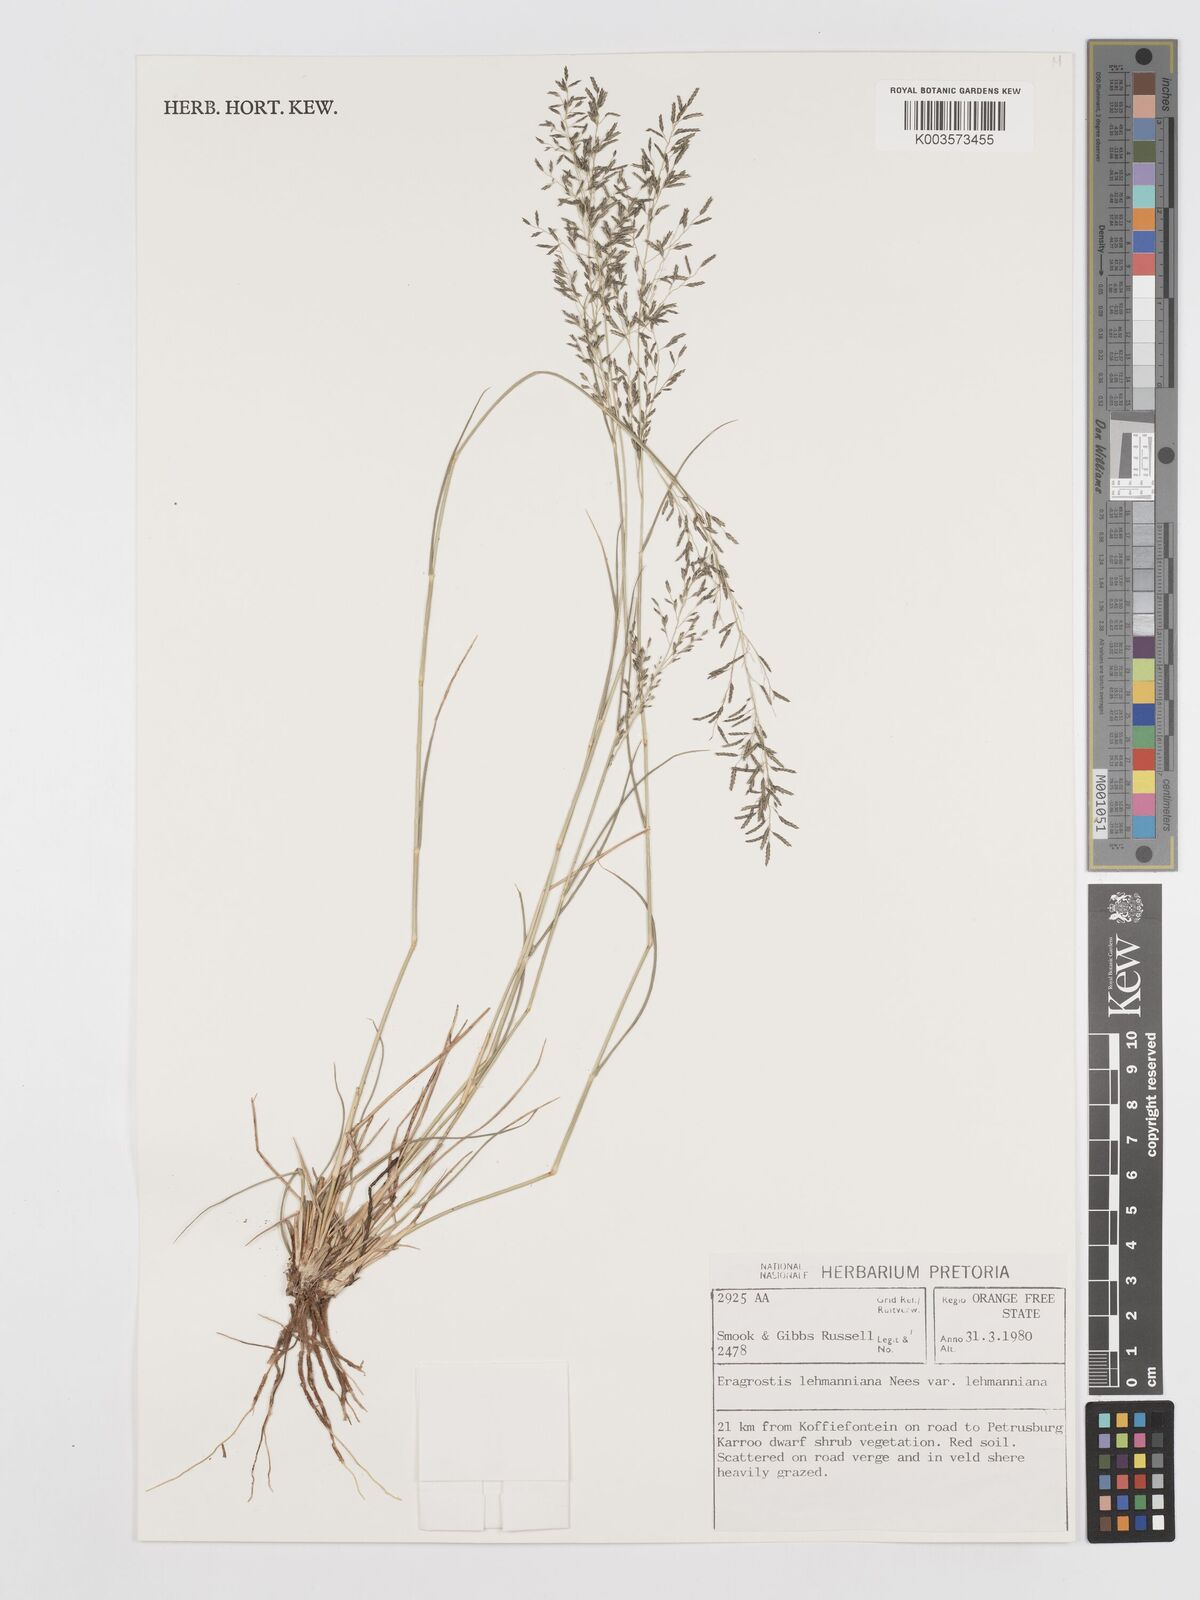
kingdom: Plantae
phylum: Tracheophyta
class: Liliopsida
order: Poales
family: Poaceae
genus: Eragrostis
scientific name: Eragrostis lehmanniana
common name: Lehmann lovegrass
